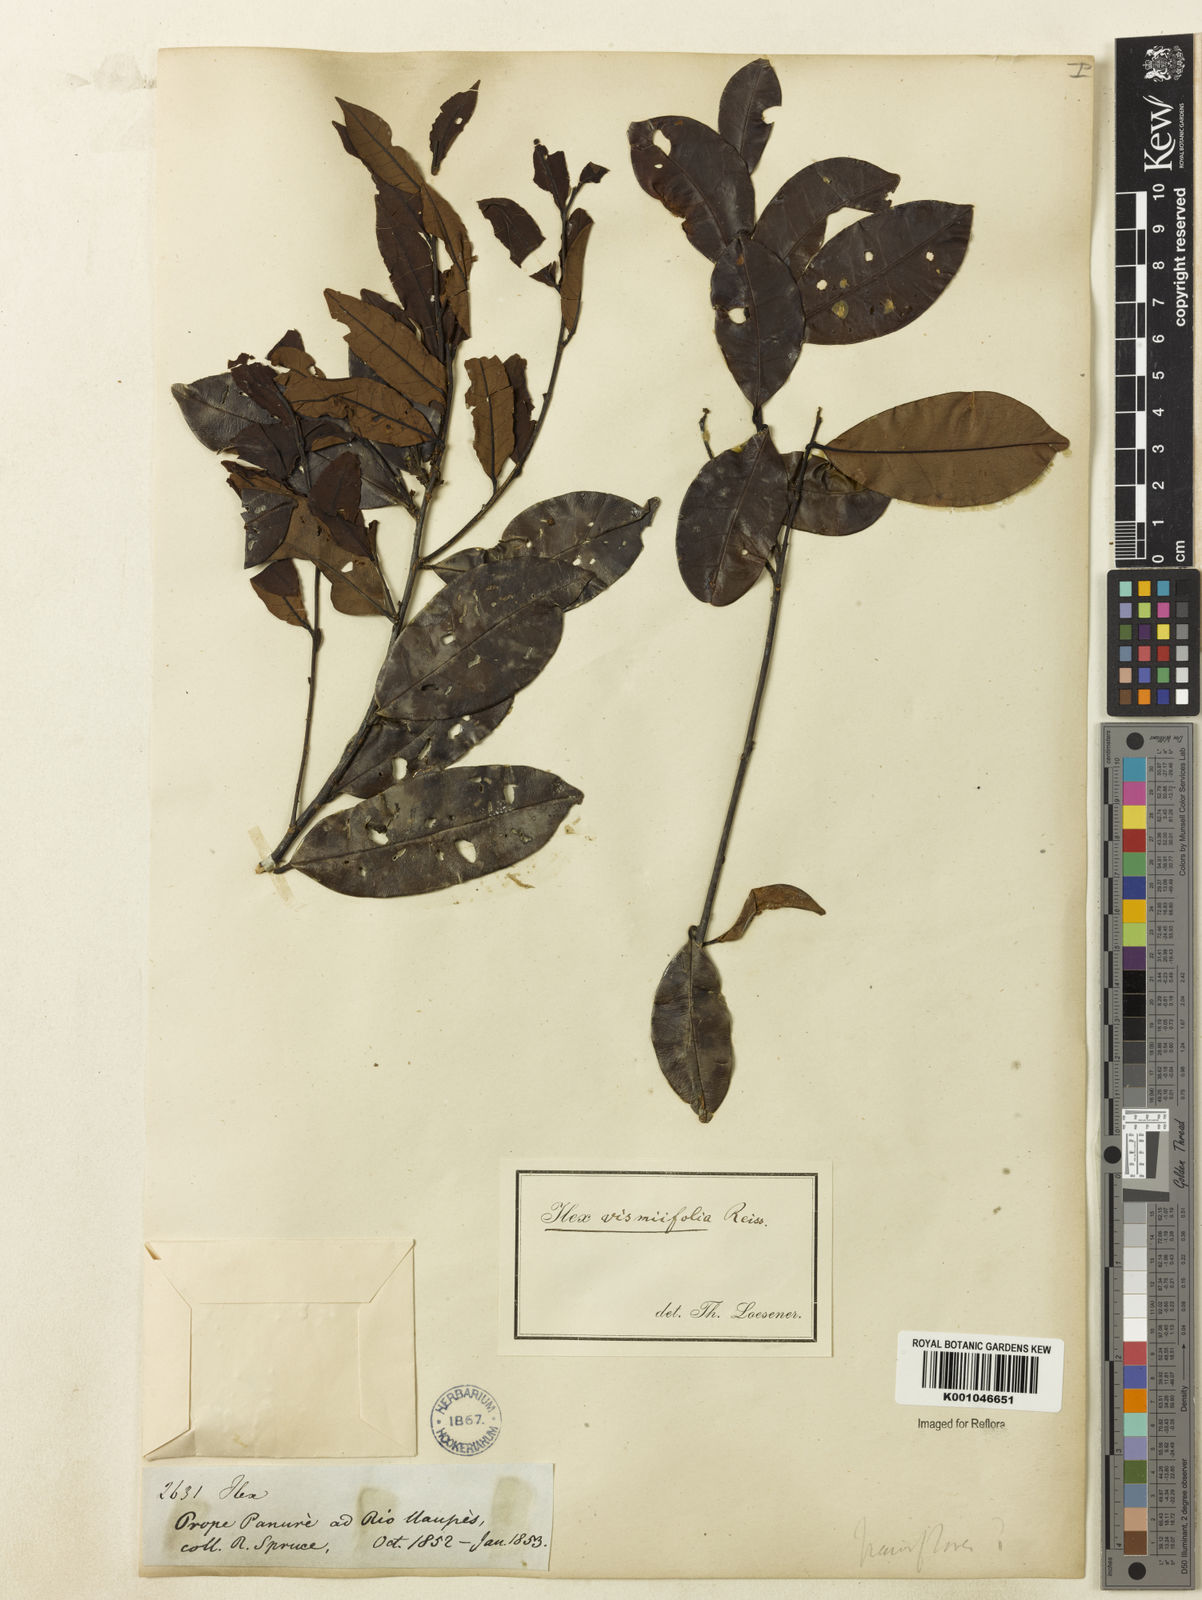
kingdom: Plantae
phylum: Tracheophyta
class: Magnoliopsida
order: Aquifoliales
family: Aquifoliaceae
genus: Ilex
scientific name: Ilex vismiifolia
